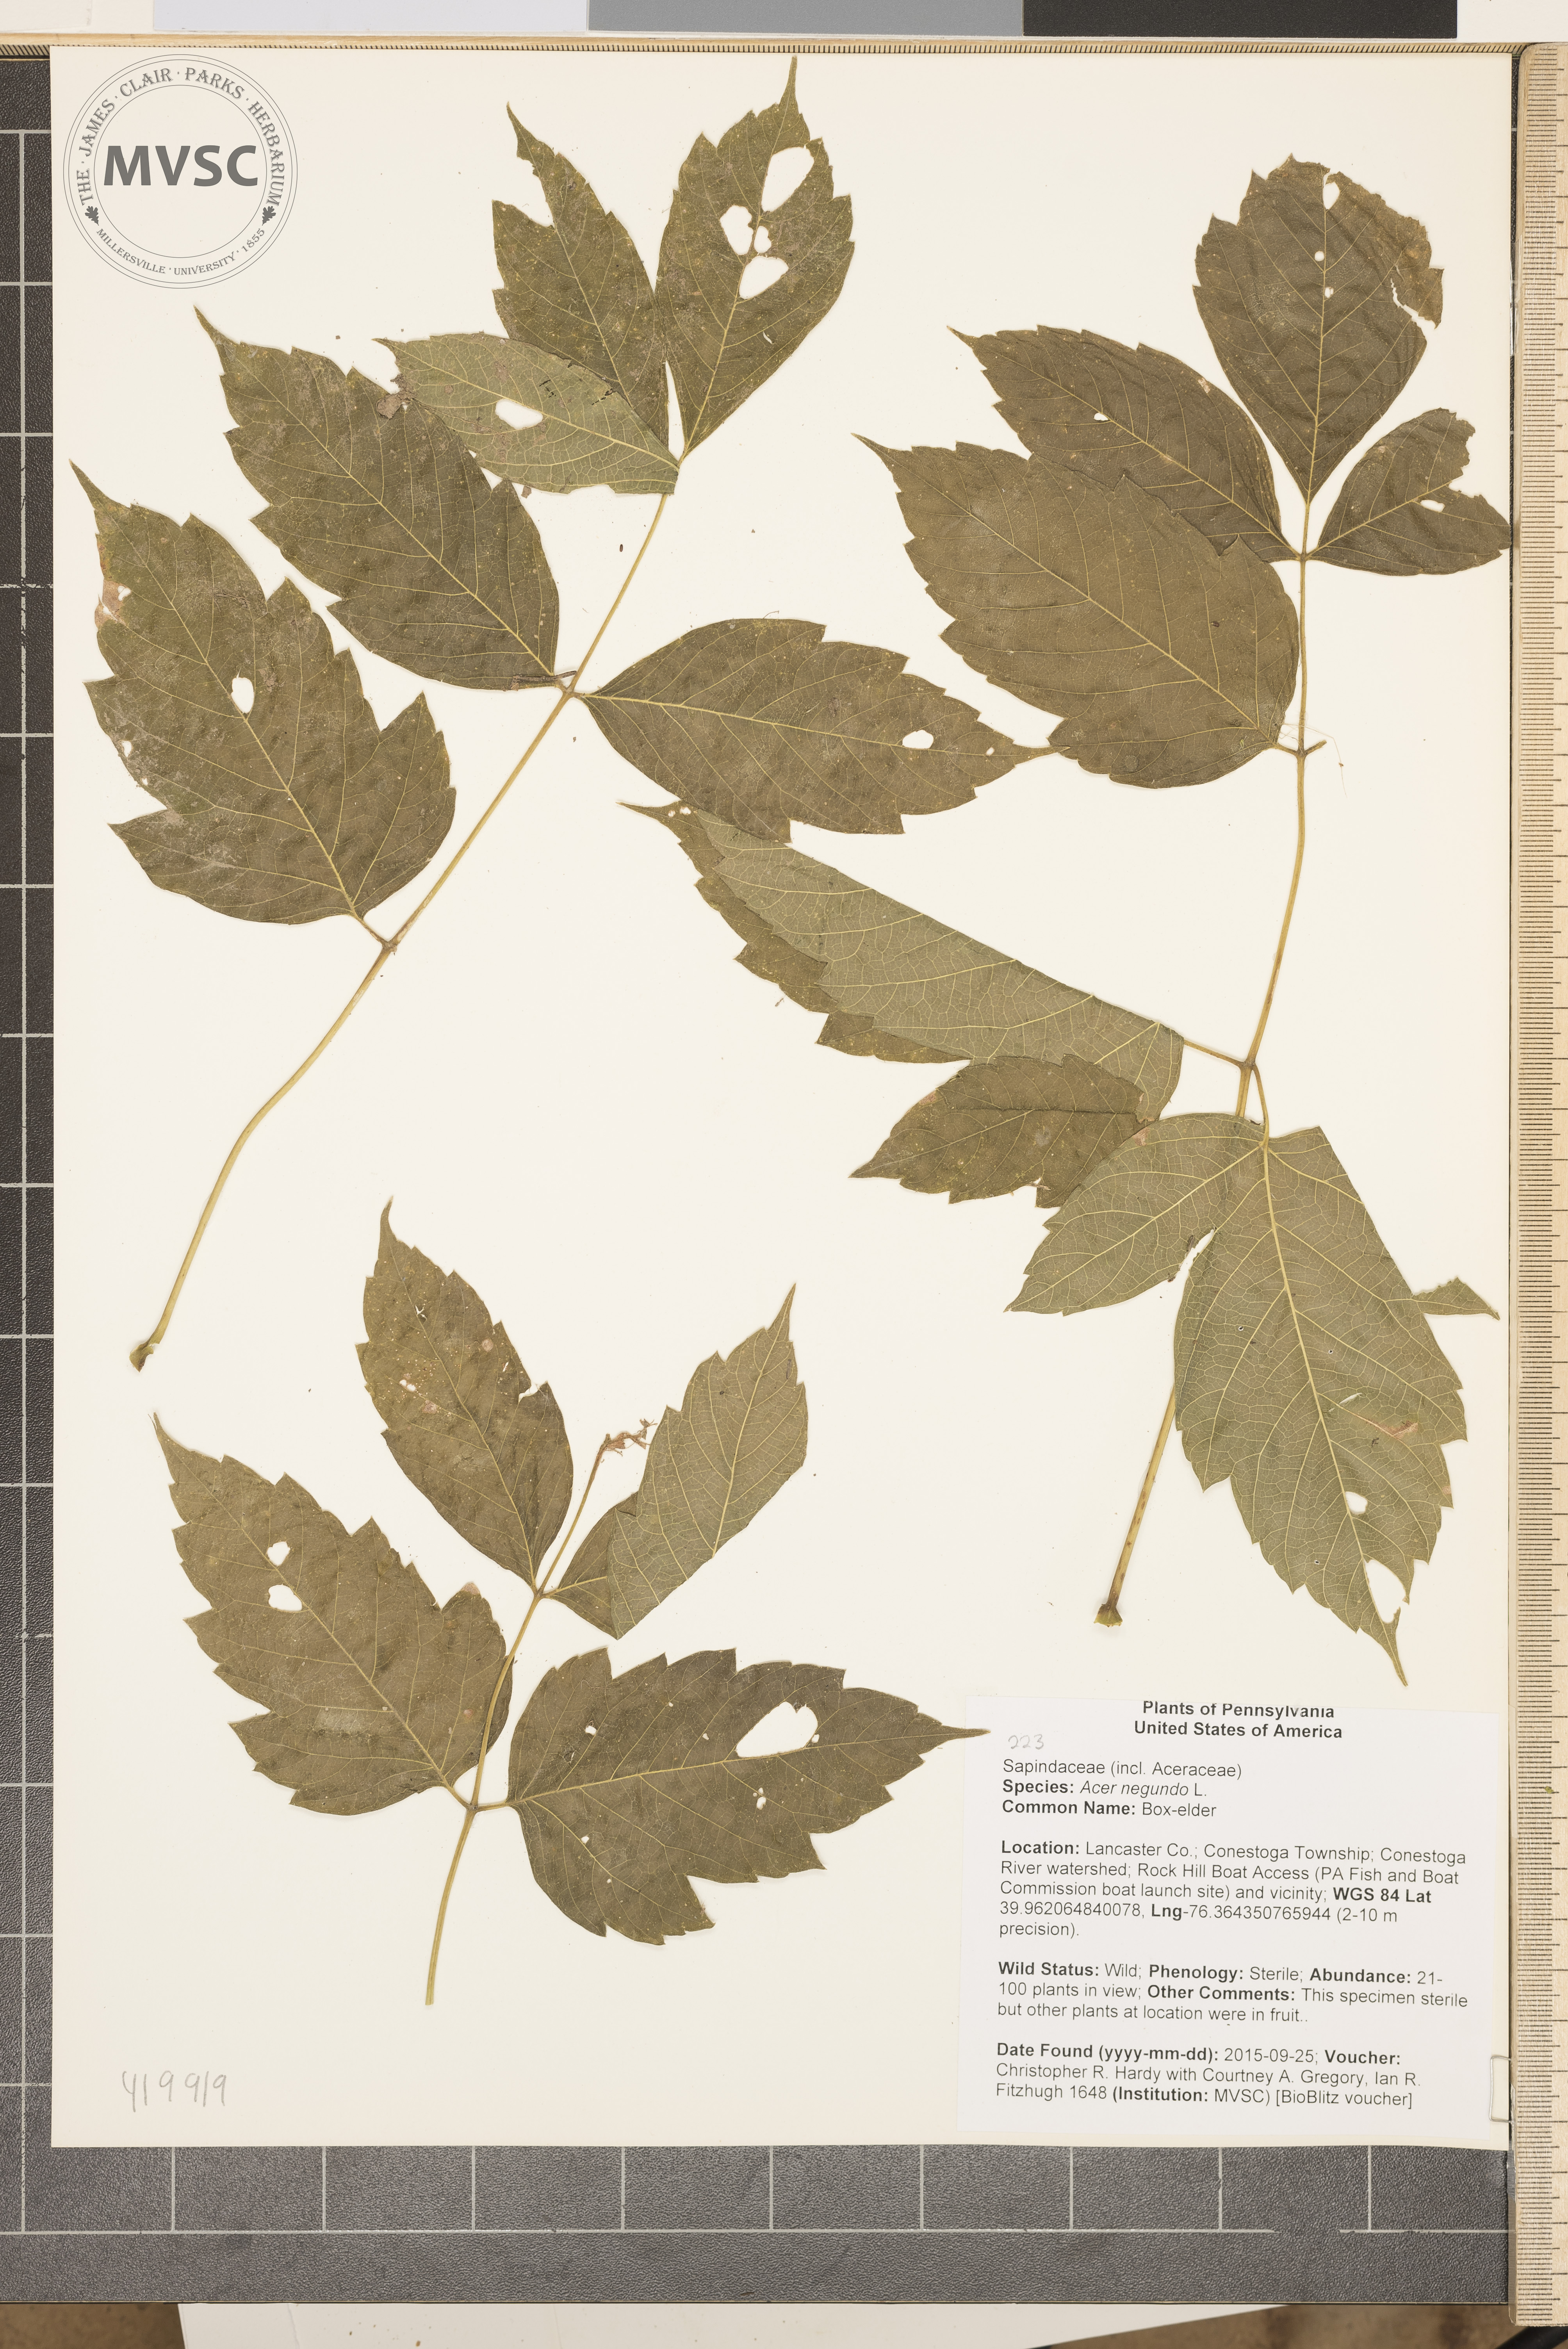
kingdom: Plantae
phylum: Tracheophyta
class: Magnoliopsida
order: Sapindales
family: Sapindaceae
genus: Acer
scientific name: Acer negundo
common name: Box-elder
